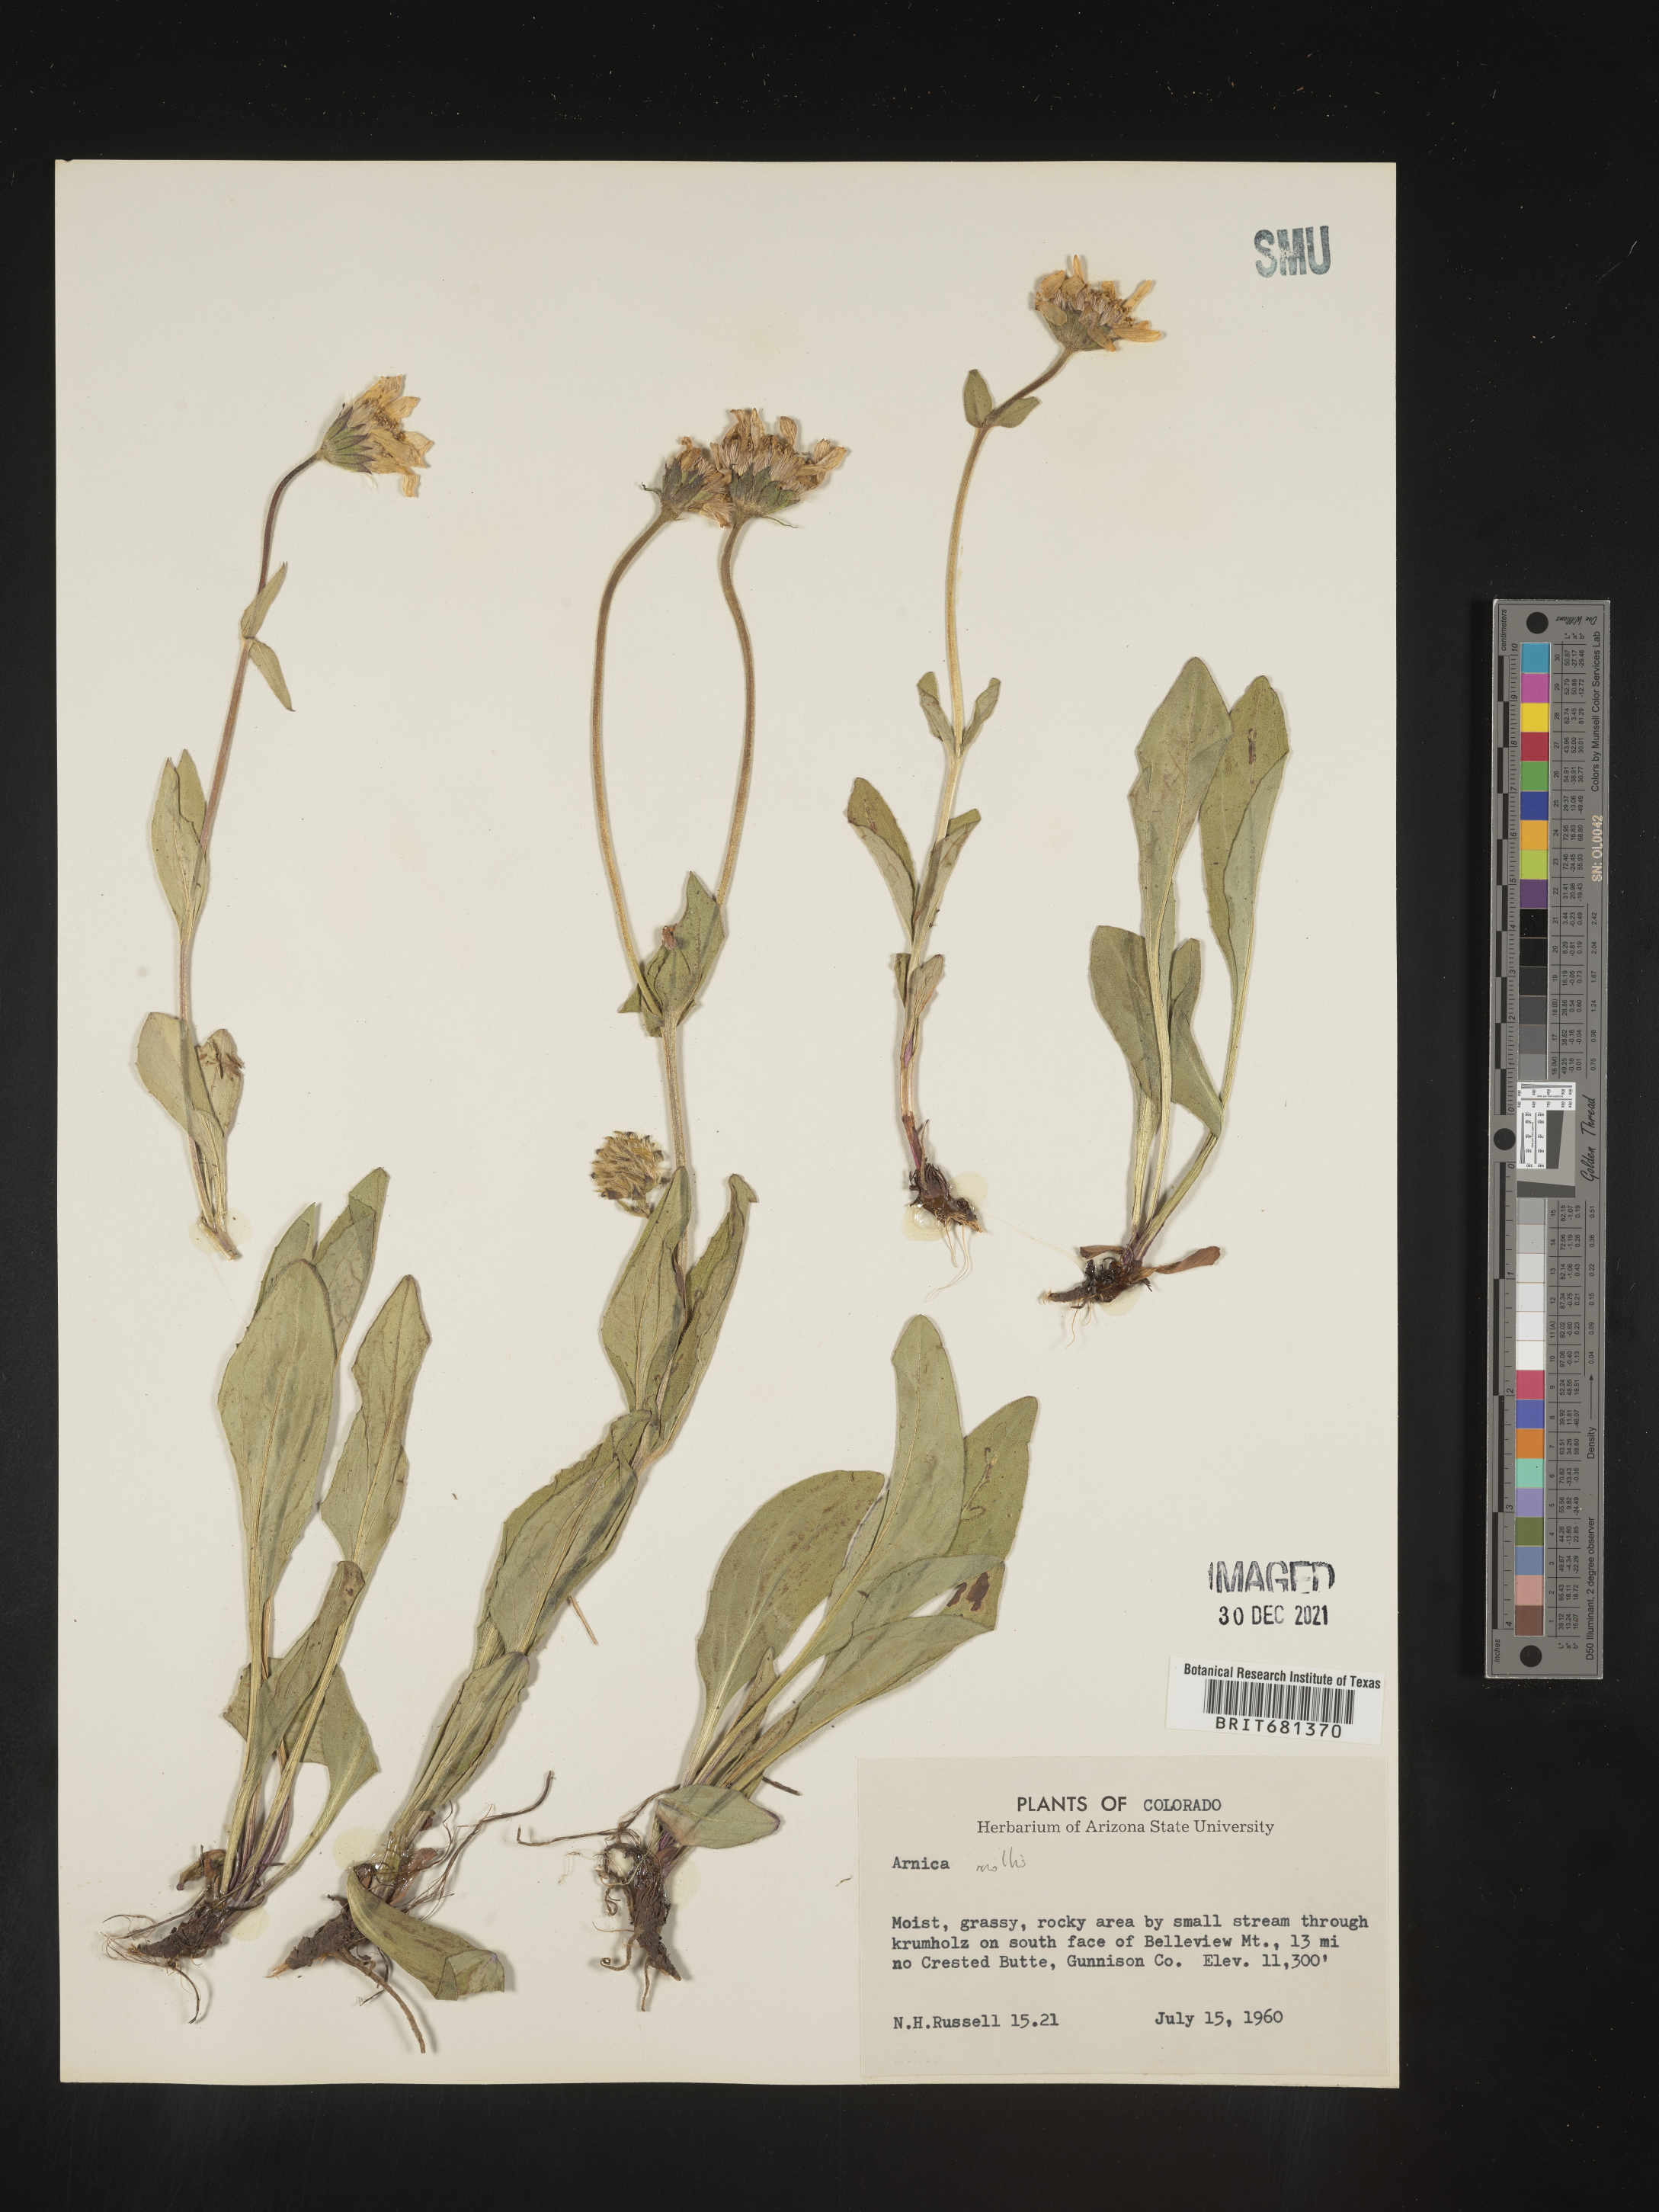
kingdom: Plantae
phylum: Tracheophyta
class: Magnoliopsida
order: Asterales
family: Asteraceae
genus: Arnica
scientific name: Arnica mollis
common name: Hairy arnica
